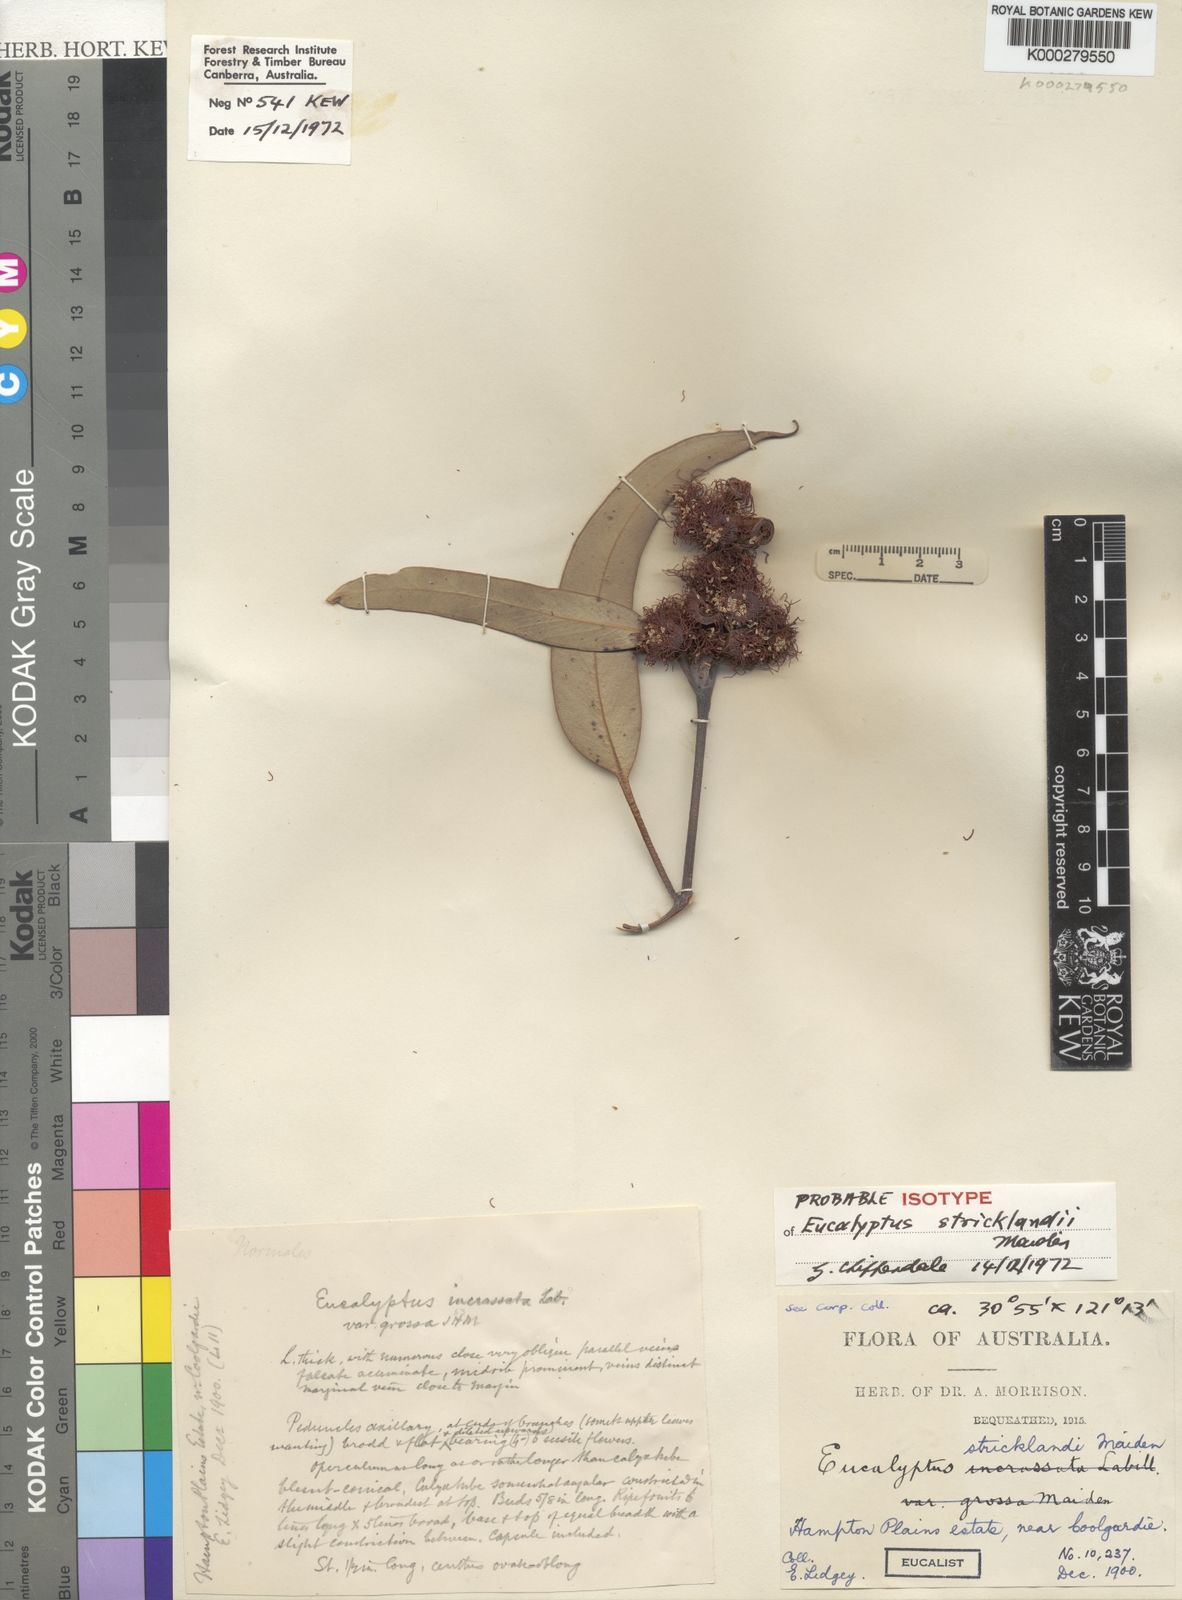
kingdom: Plantae
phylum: Tracheophyta
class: Magnoliopsida
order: Myrtales
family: Myrtaceae
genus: Eucalyptus
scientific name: Eucalyptus stricklandii
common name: Goldfields yellow-flower gum
